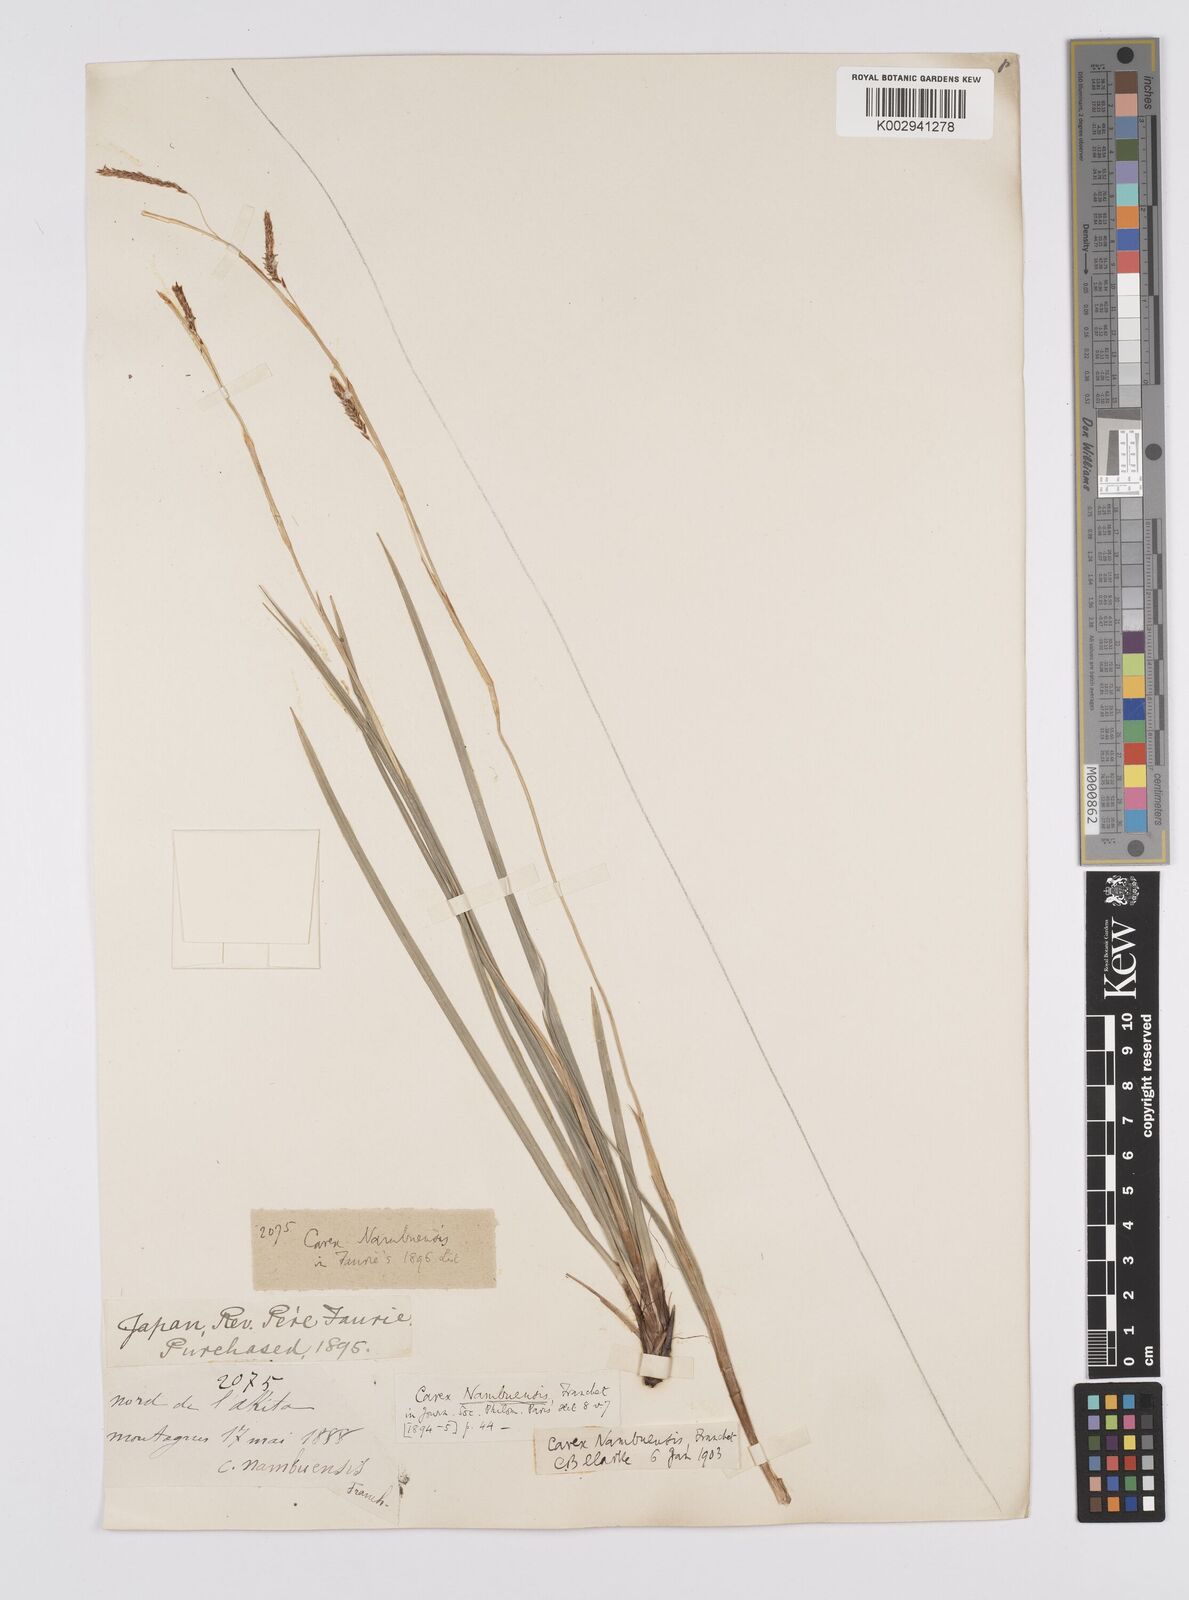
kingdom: Plantae
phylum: Tracheophyta
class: Liliopsida
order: Poales
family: Cyperaceae
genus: Carex
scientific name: Carex reinii
